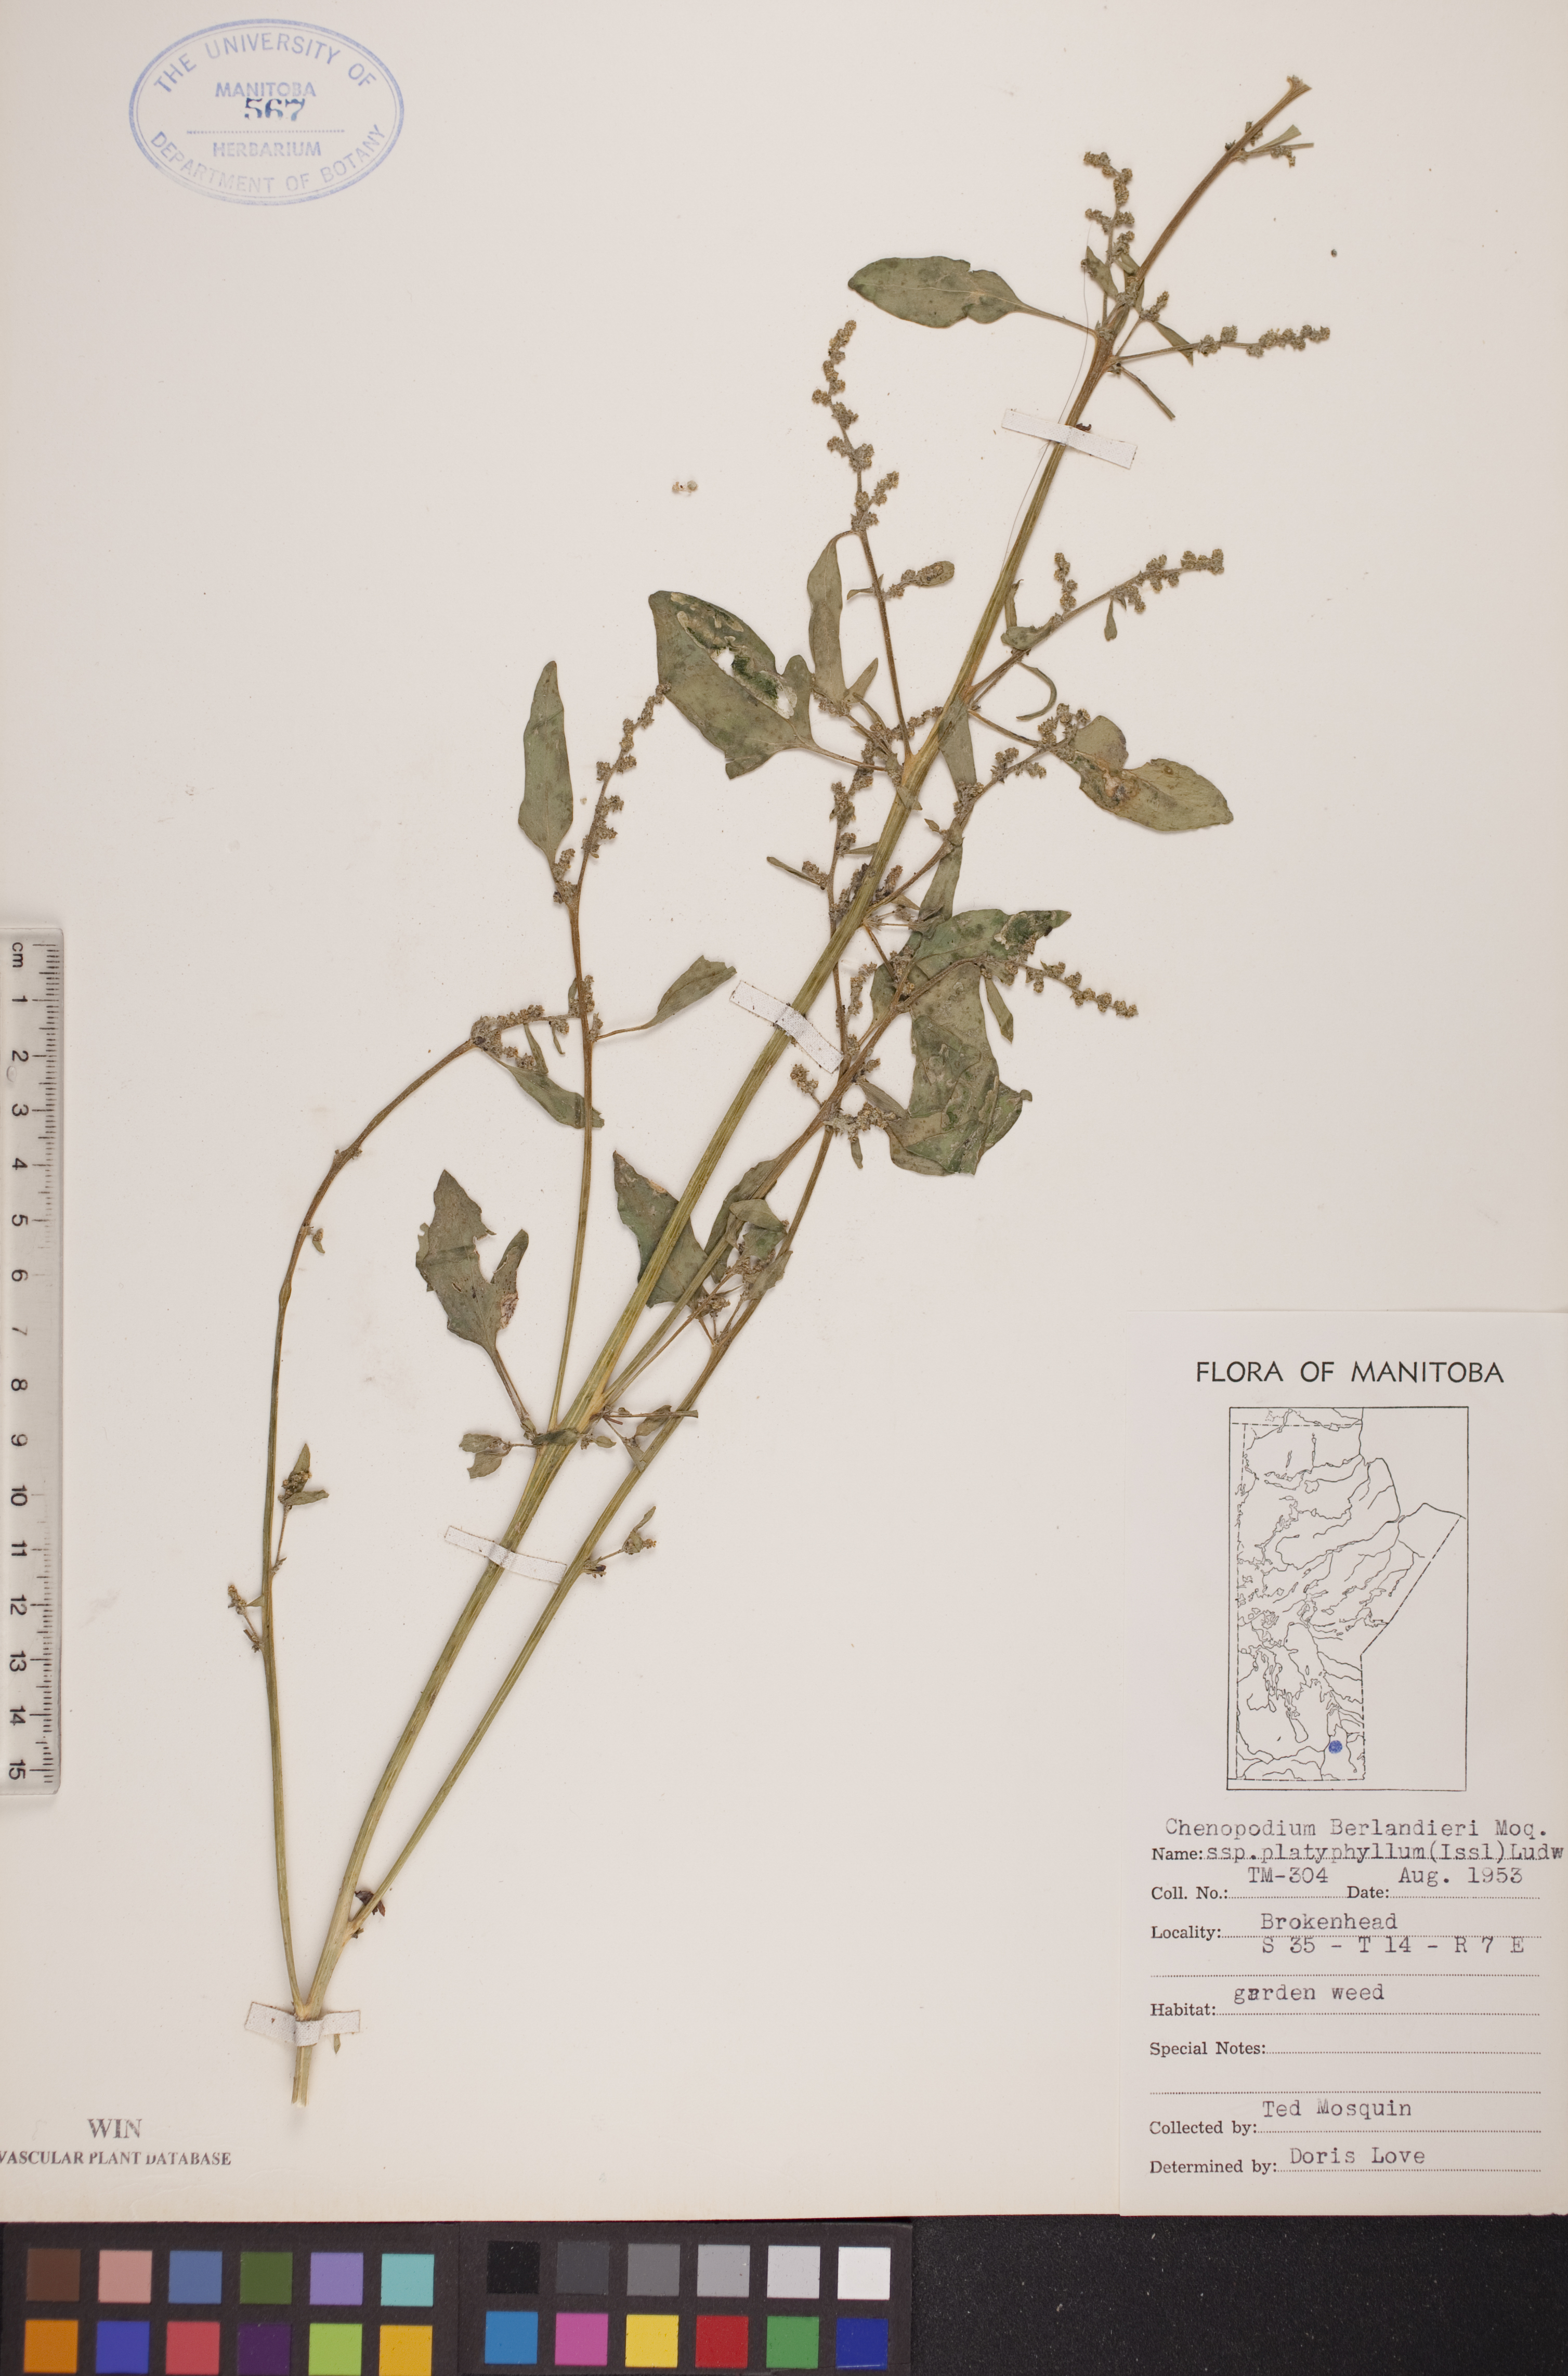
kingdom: Plantae
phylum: Tracheophyta
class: Magnoliopsida
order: Caryophyllales
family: Amaranthaceae
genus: Chenopodium
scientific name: Chenopodium berlandieri
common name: Pit-seed goosefoot
